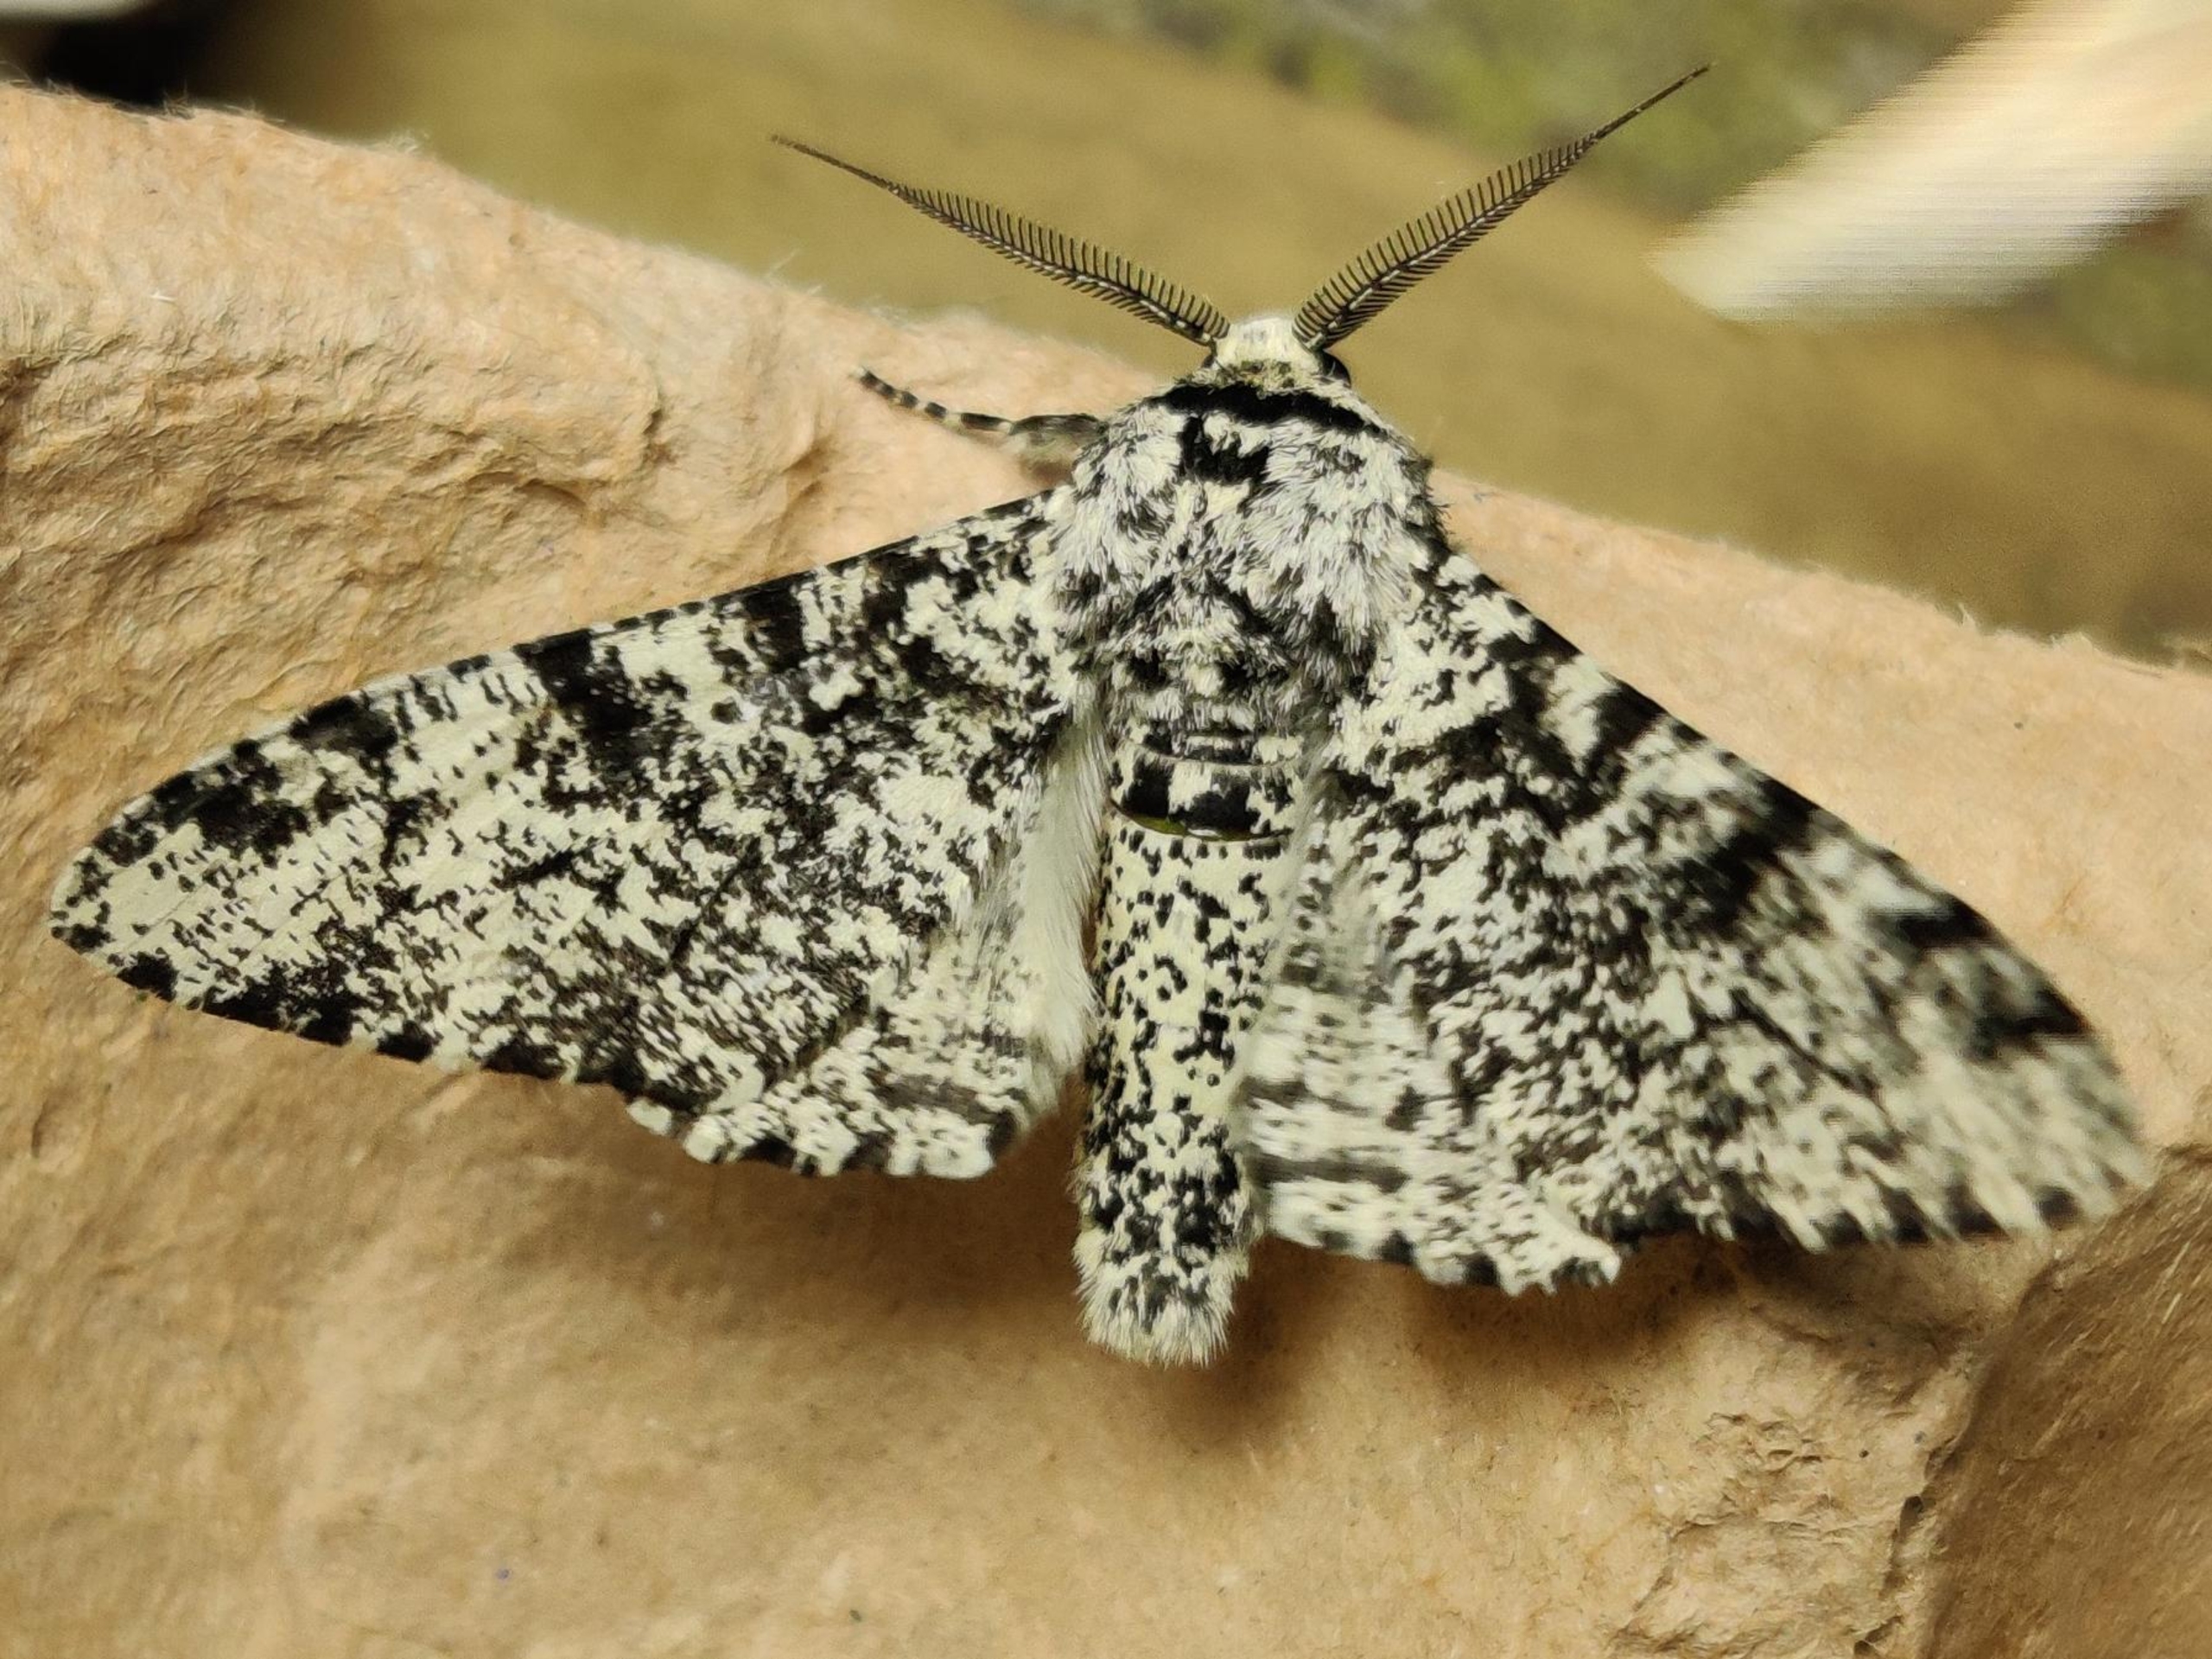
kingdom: Animalia
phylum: Arthropoda
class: Insecta
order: Lepidoptera
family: Geometridae
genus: Biston
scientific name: Biston betularia
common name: Birkemåler
